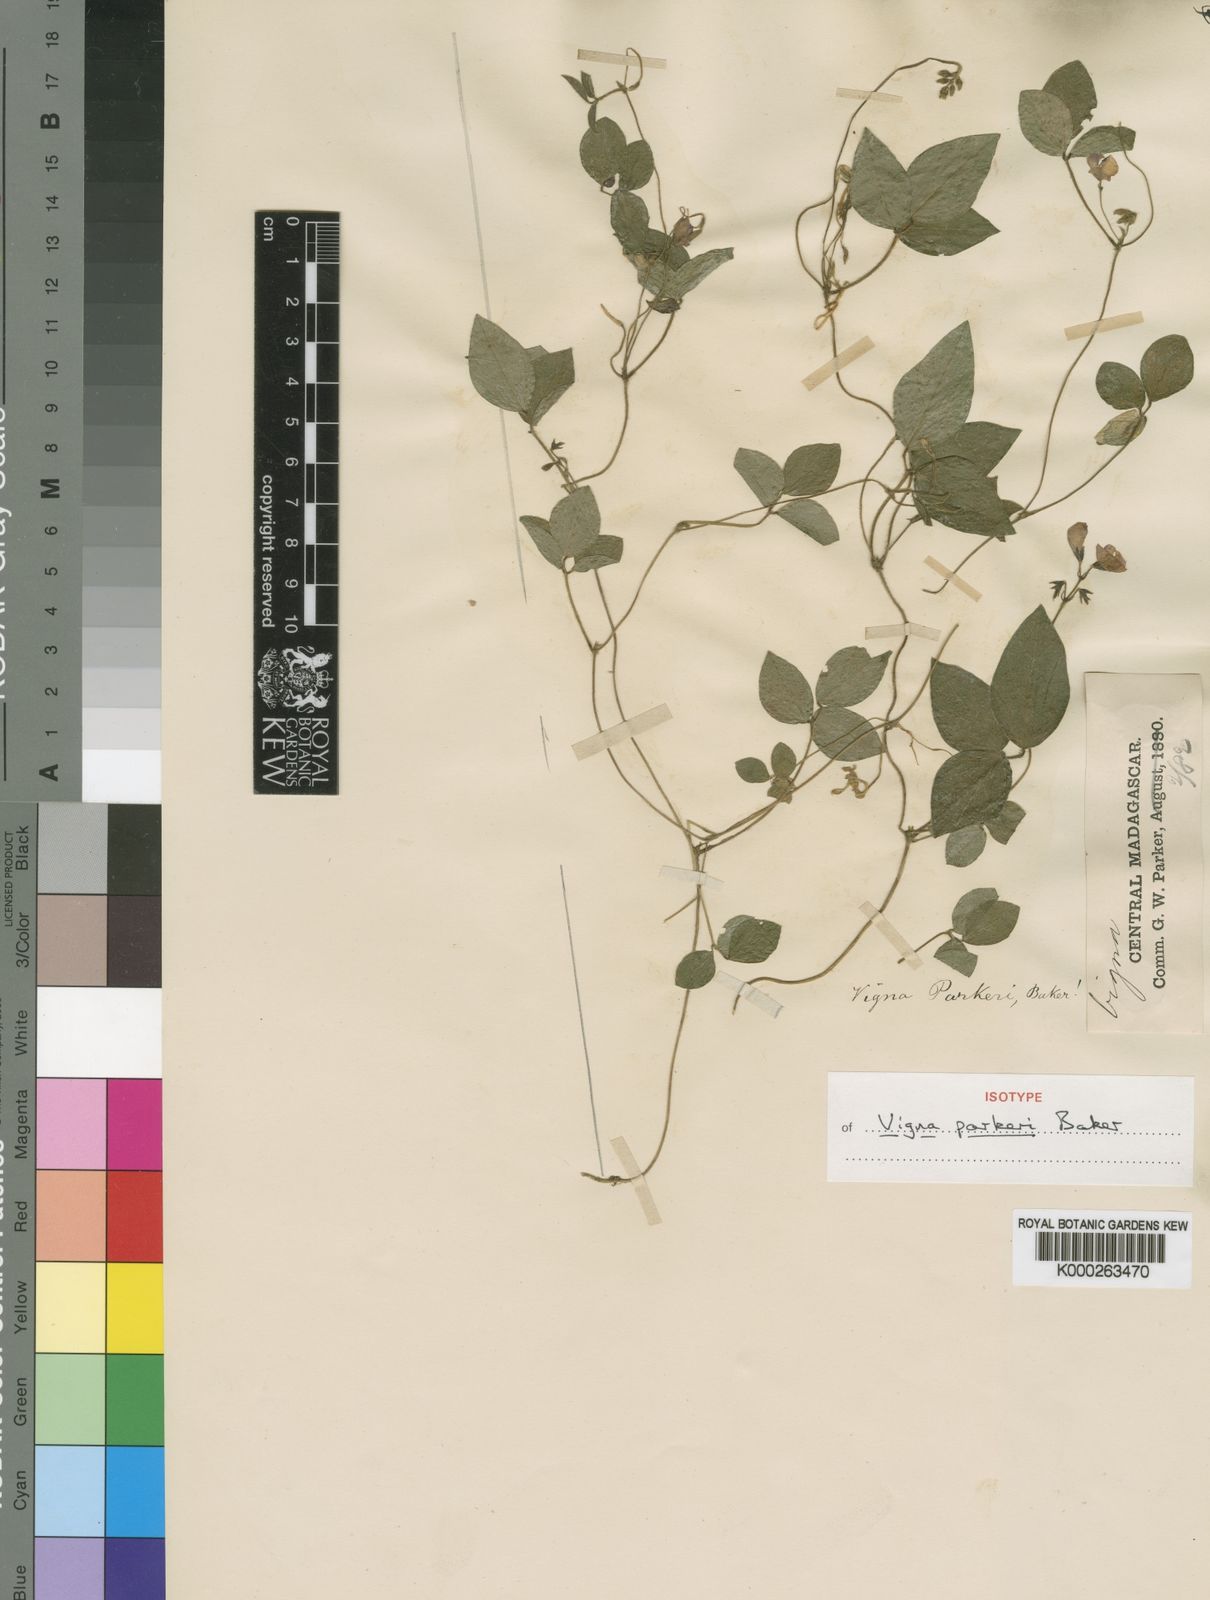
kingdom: Plantae
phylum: Tracheophyta
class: Magnoliopsida
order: Fabales
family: Fabaceae
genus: Vigna
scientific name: Vigna parkeri
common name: Creeping vigna
